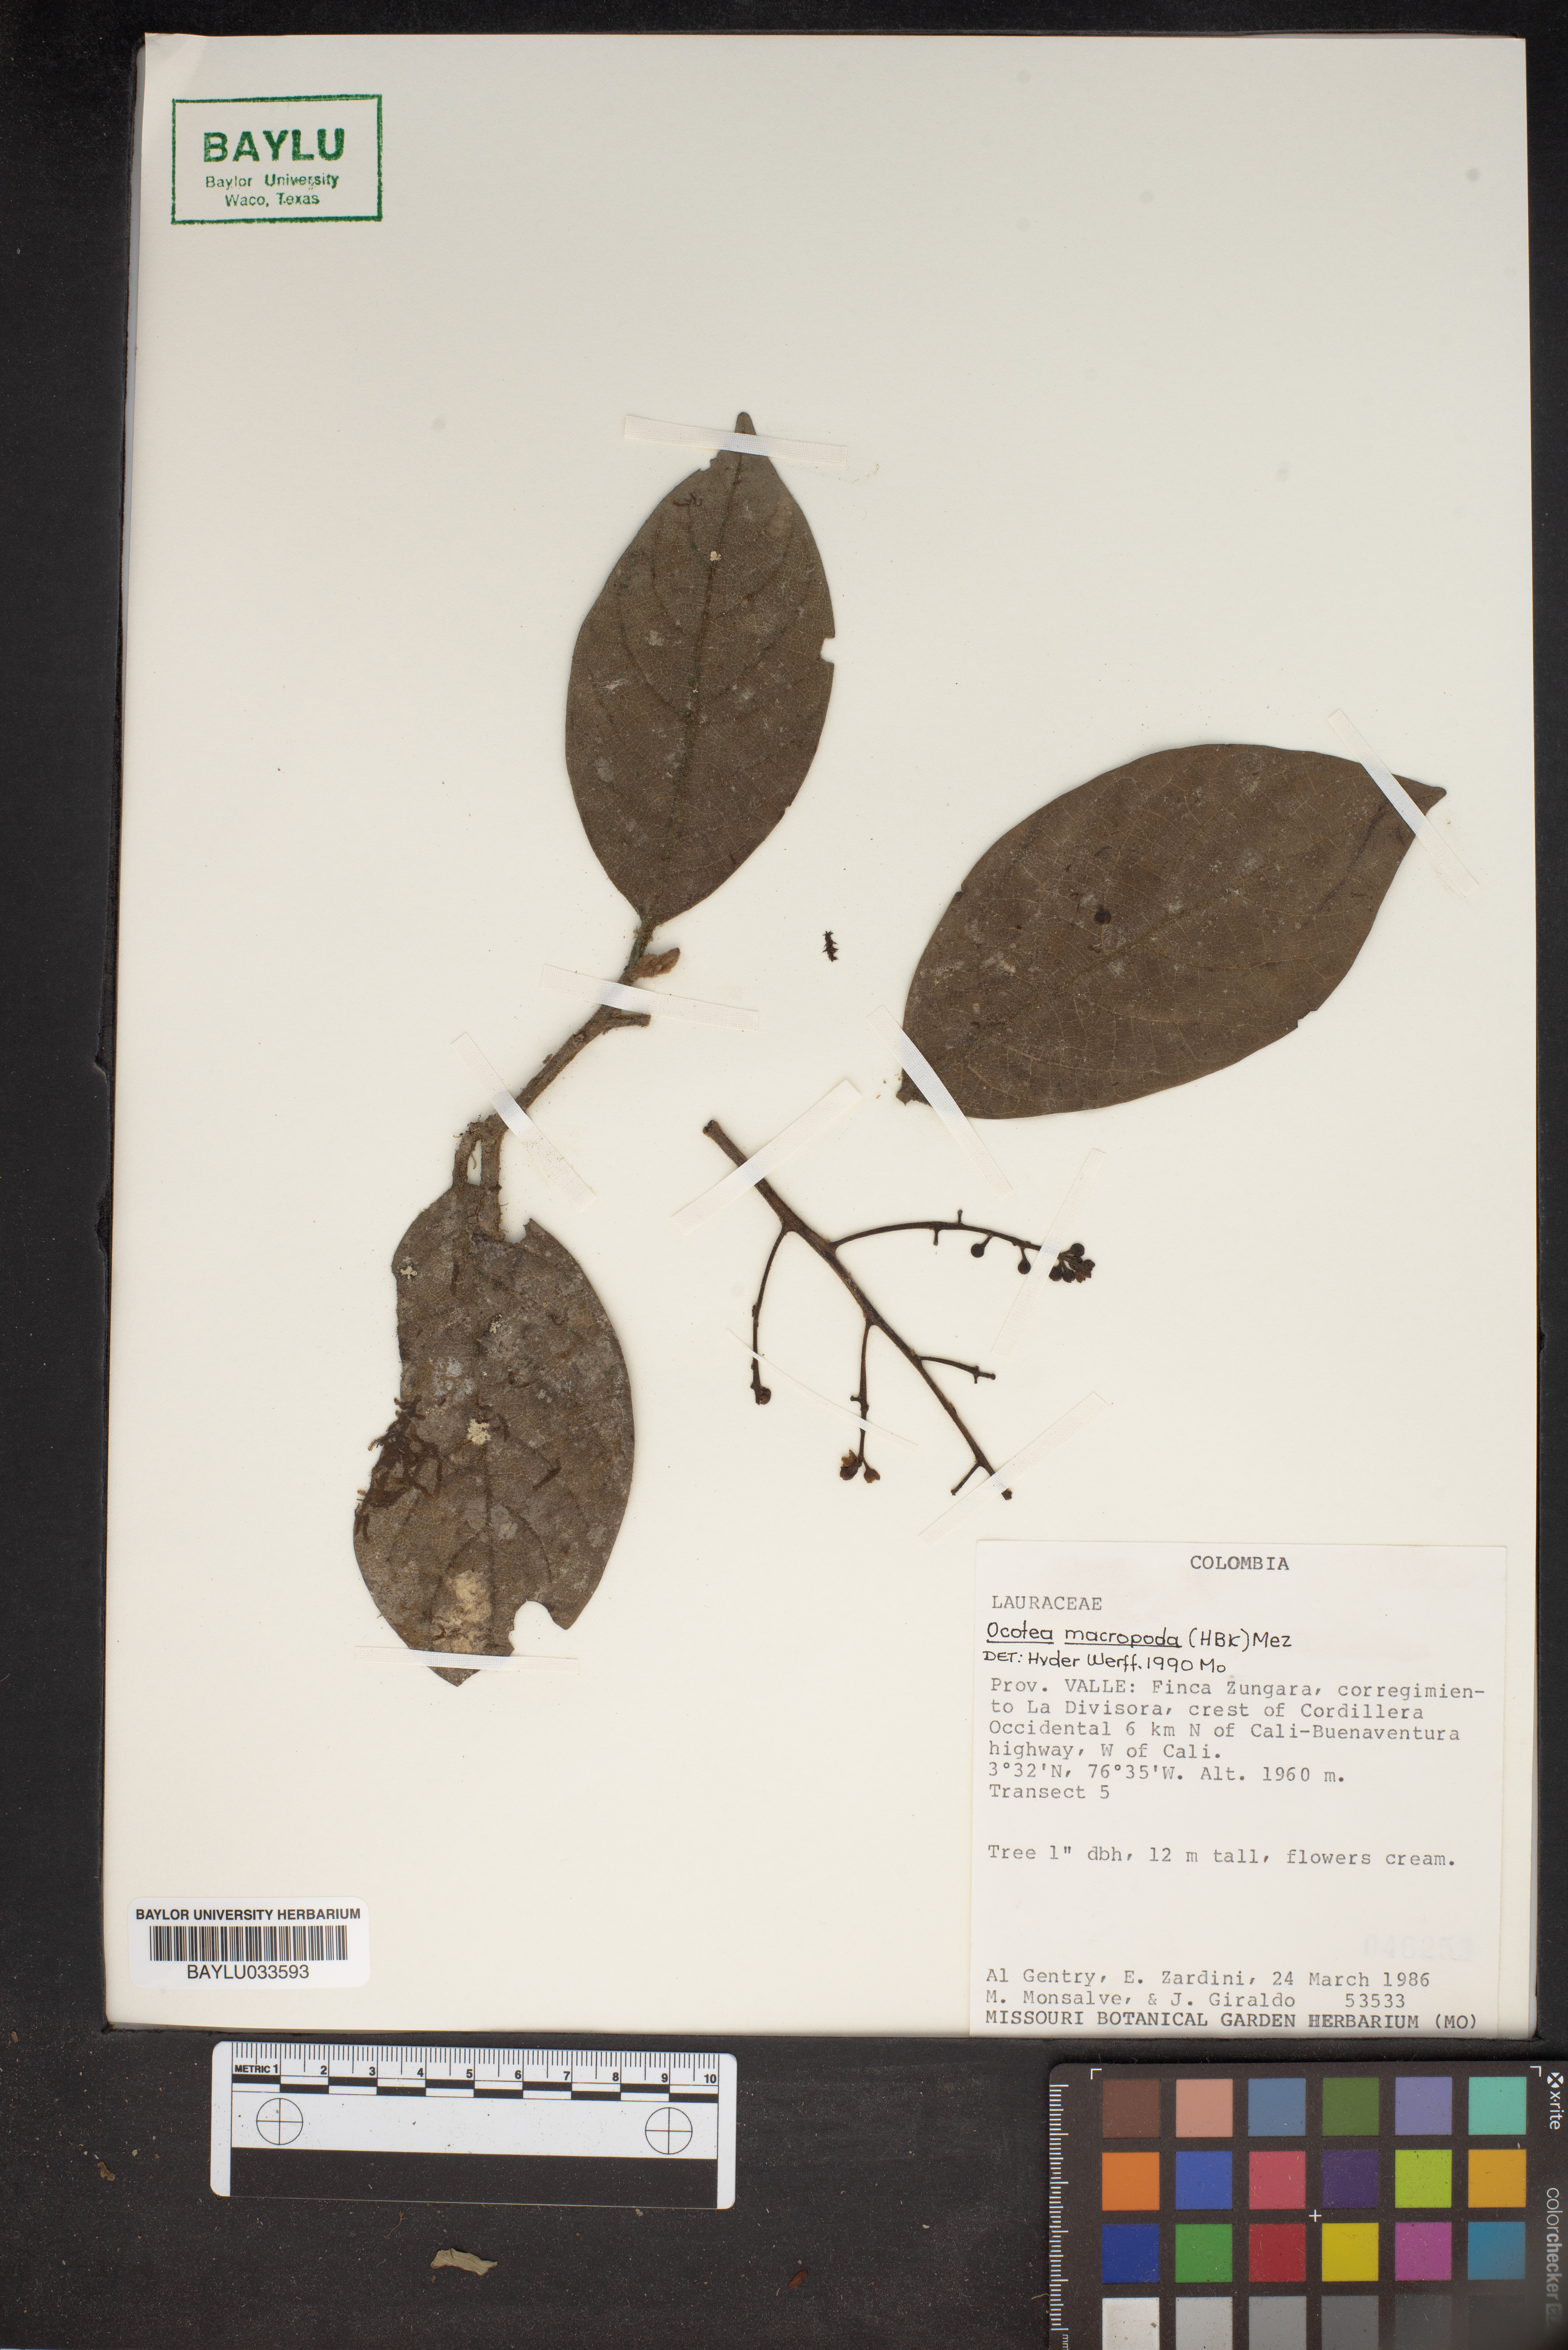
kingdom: Plantae
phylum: Tracheophyta
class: Magnoliopsida
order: Laurales
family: Lauraceae
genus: Ocotea
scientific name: Ocotea macropoda
